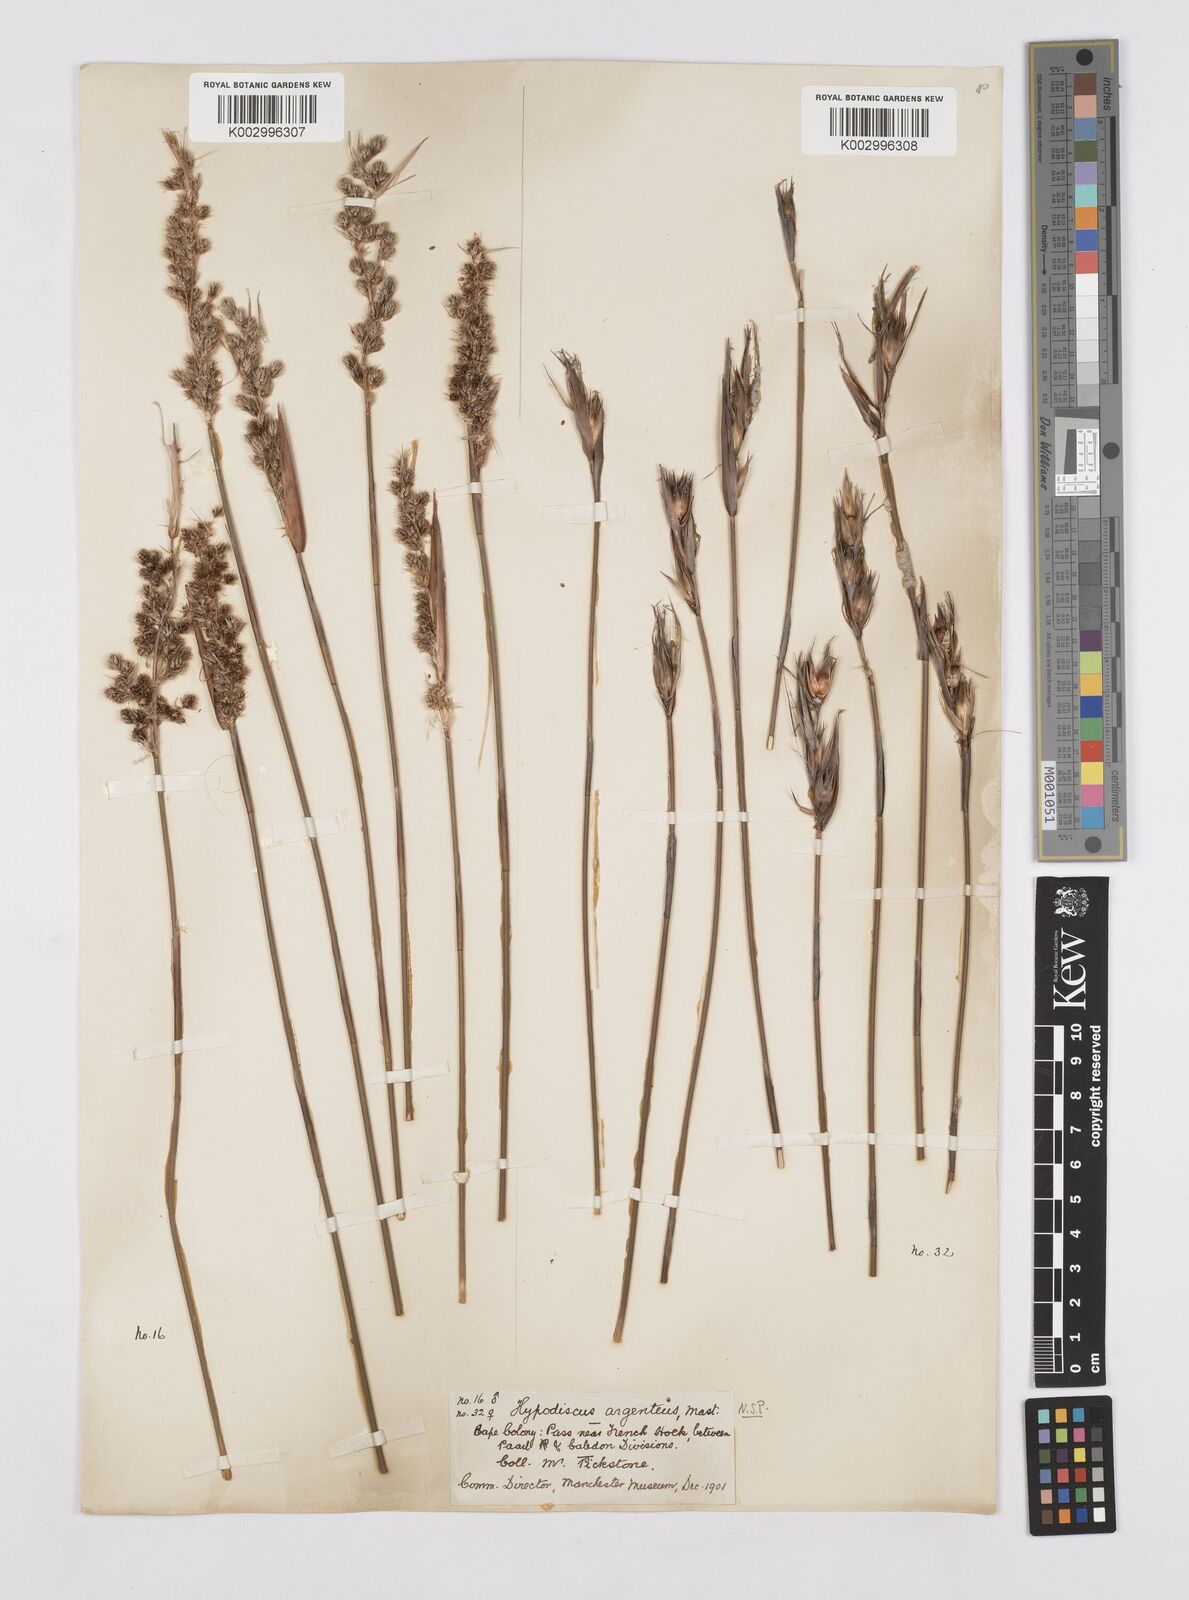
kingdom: Plantae
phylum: Tracheophyta
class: Liliopsida
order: Poales
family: Restionaceae
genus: Hypodiscus
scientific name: Hypodiscus argenteus
